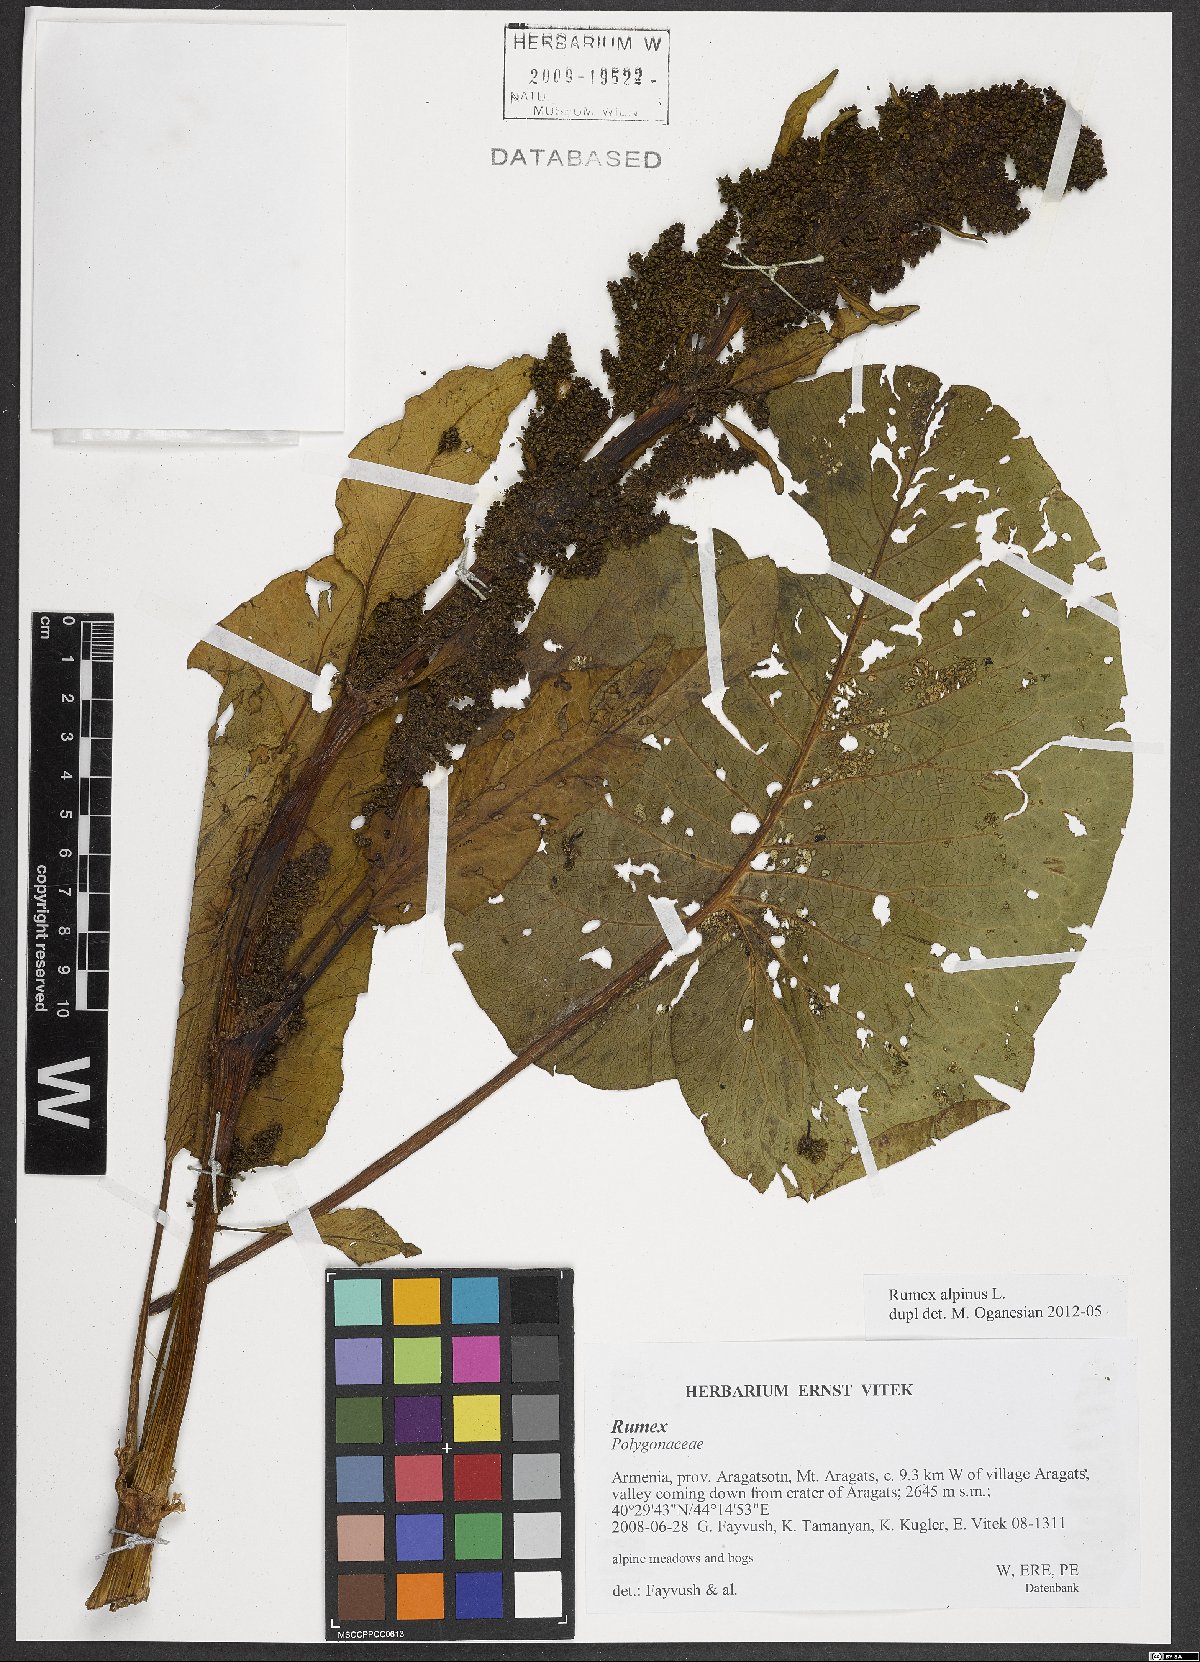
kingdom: Plantae
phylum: Tracheophyta
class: Magnoliopsida
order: Caryophyllales
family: Polygonaceae
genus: Rumex
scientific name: Rumex alpinus
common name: Alpine dock
